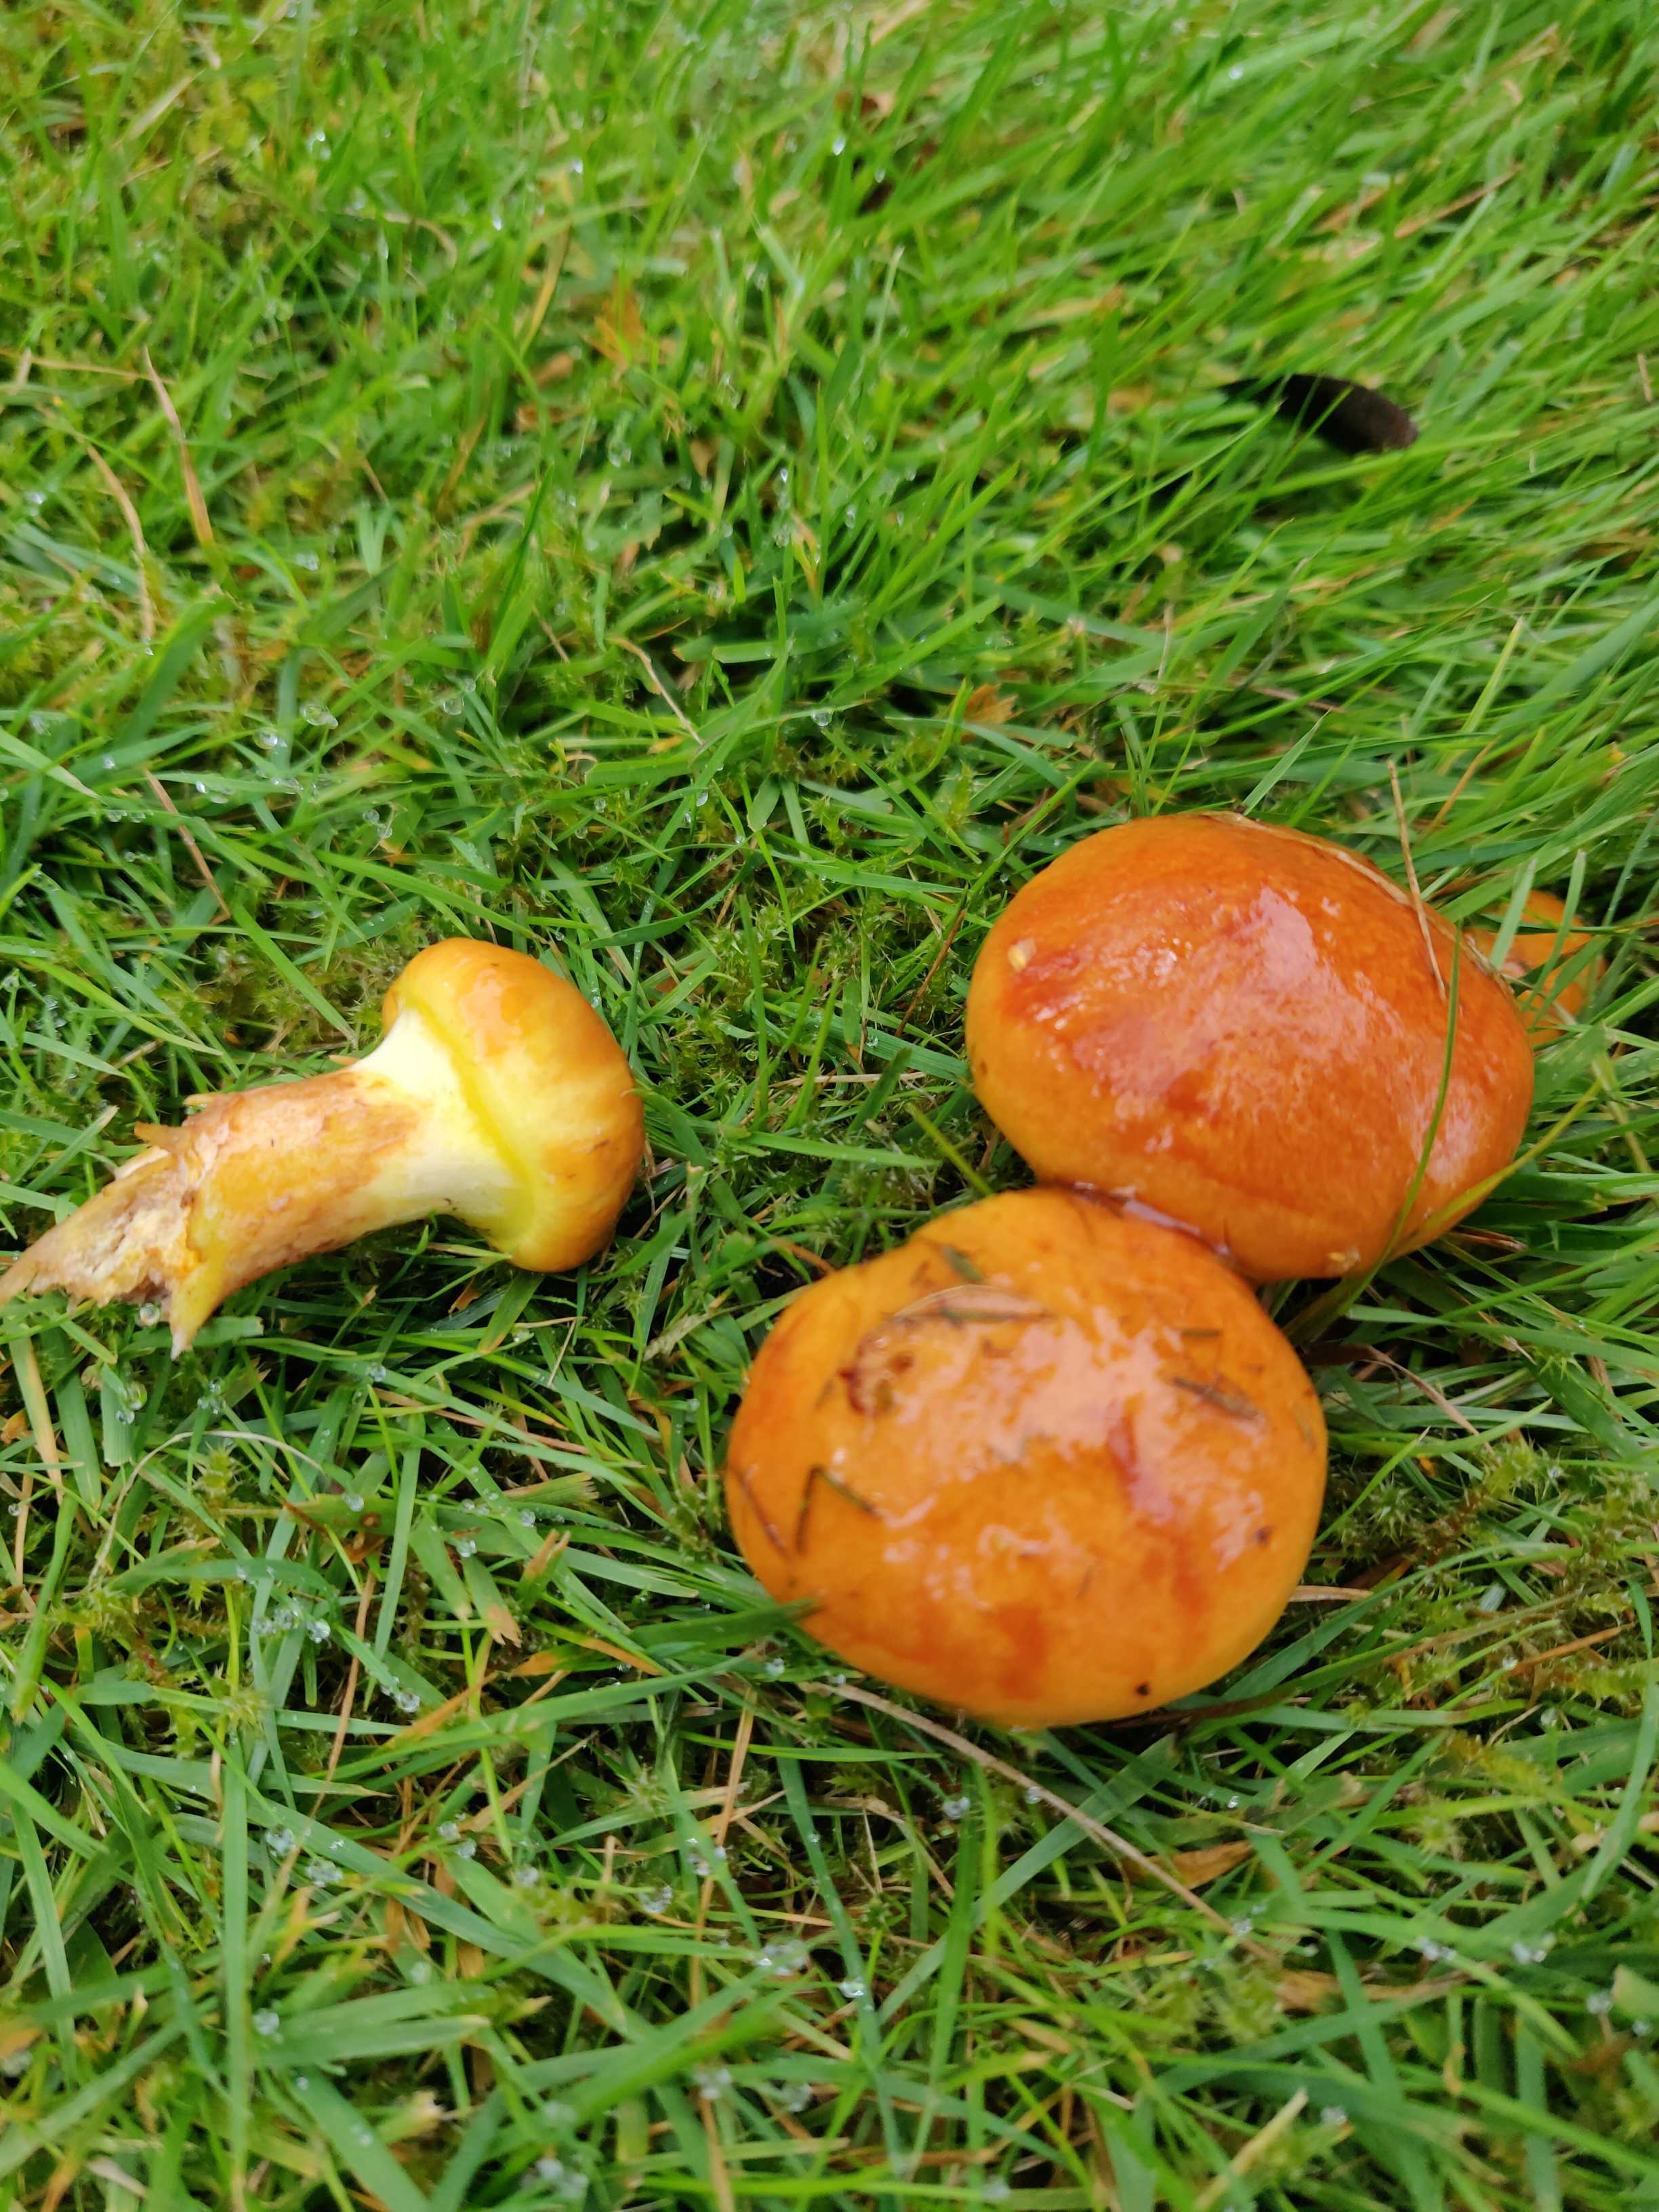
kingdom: Fungi
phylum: Basidiomycota
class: Agaricomycetes
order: Boletales
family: Suillaceae
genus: Suillus
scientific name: Suillus grevillei
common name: lærke-slimrørhat
